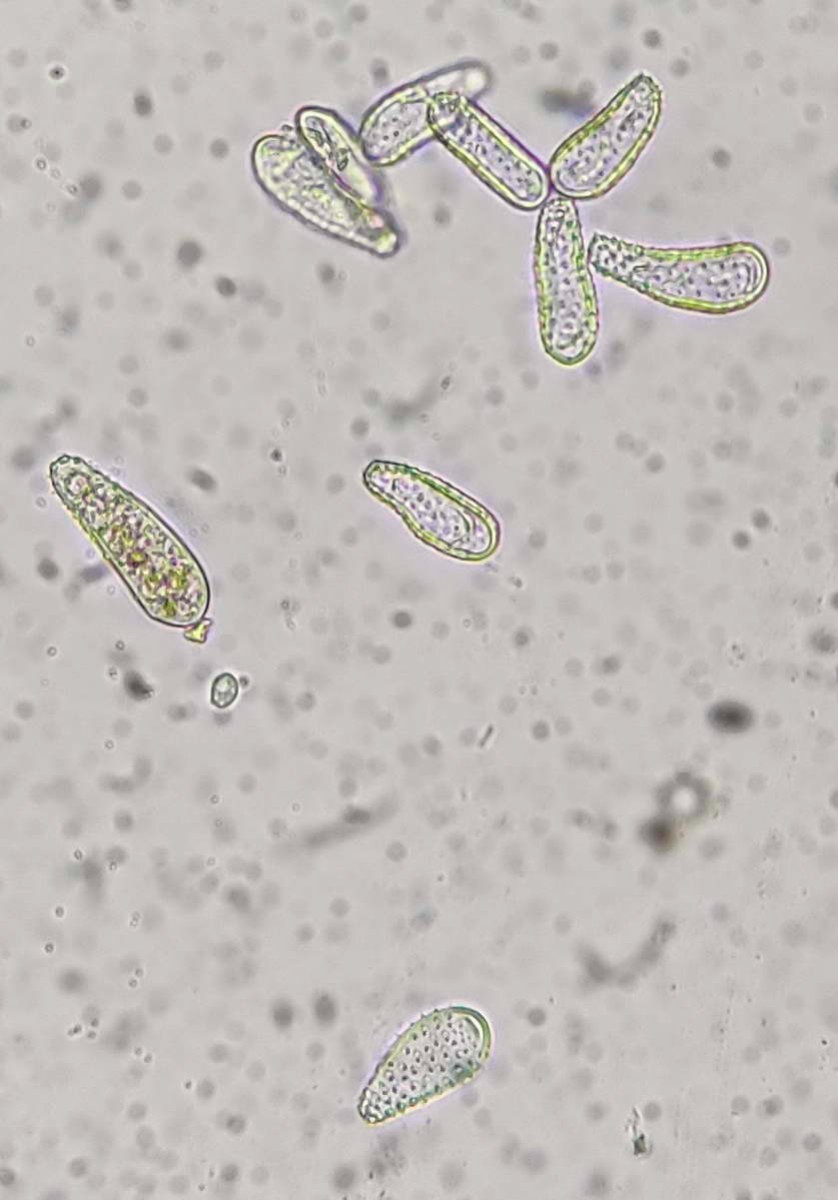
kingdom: Fungi
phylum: Basidiomycota
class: Pucciniomycetes
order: Pucciniales
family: Pucciniastraceae
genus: Melampsoridium
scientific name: Melampsoridium betulinum
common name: Birch rust
